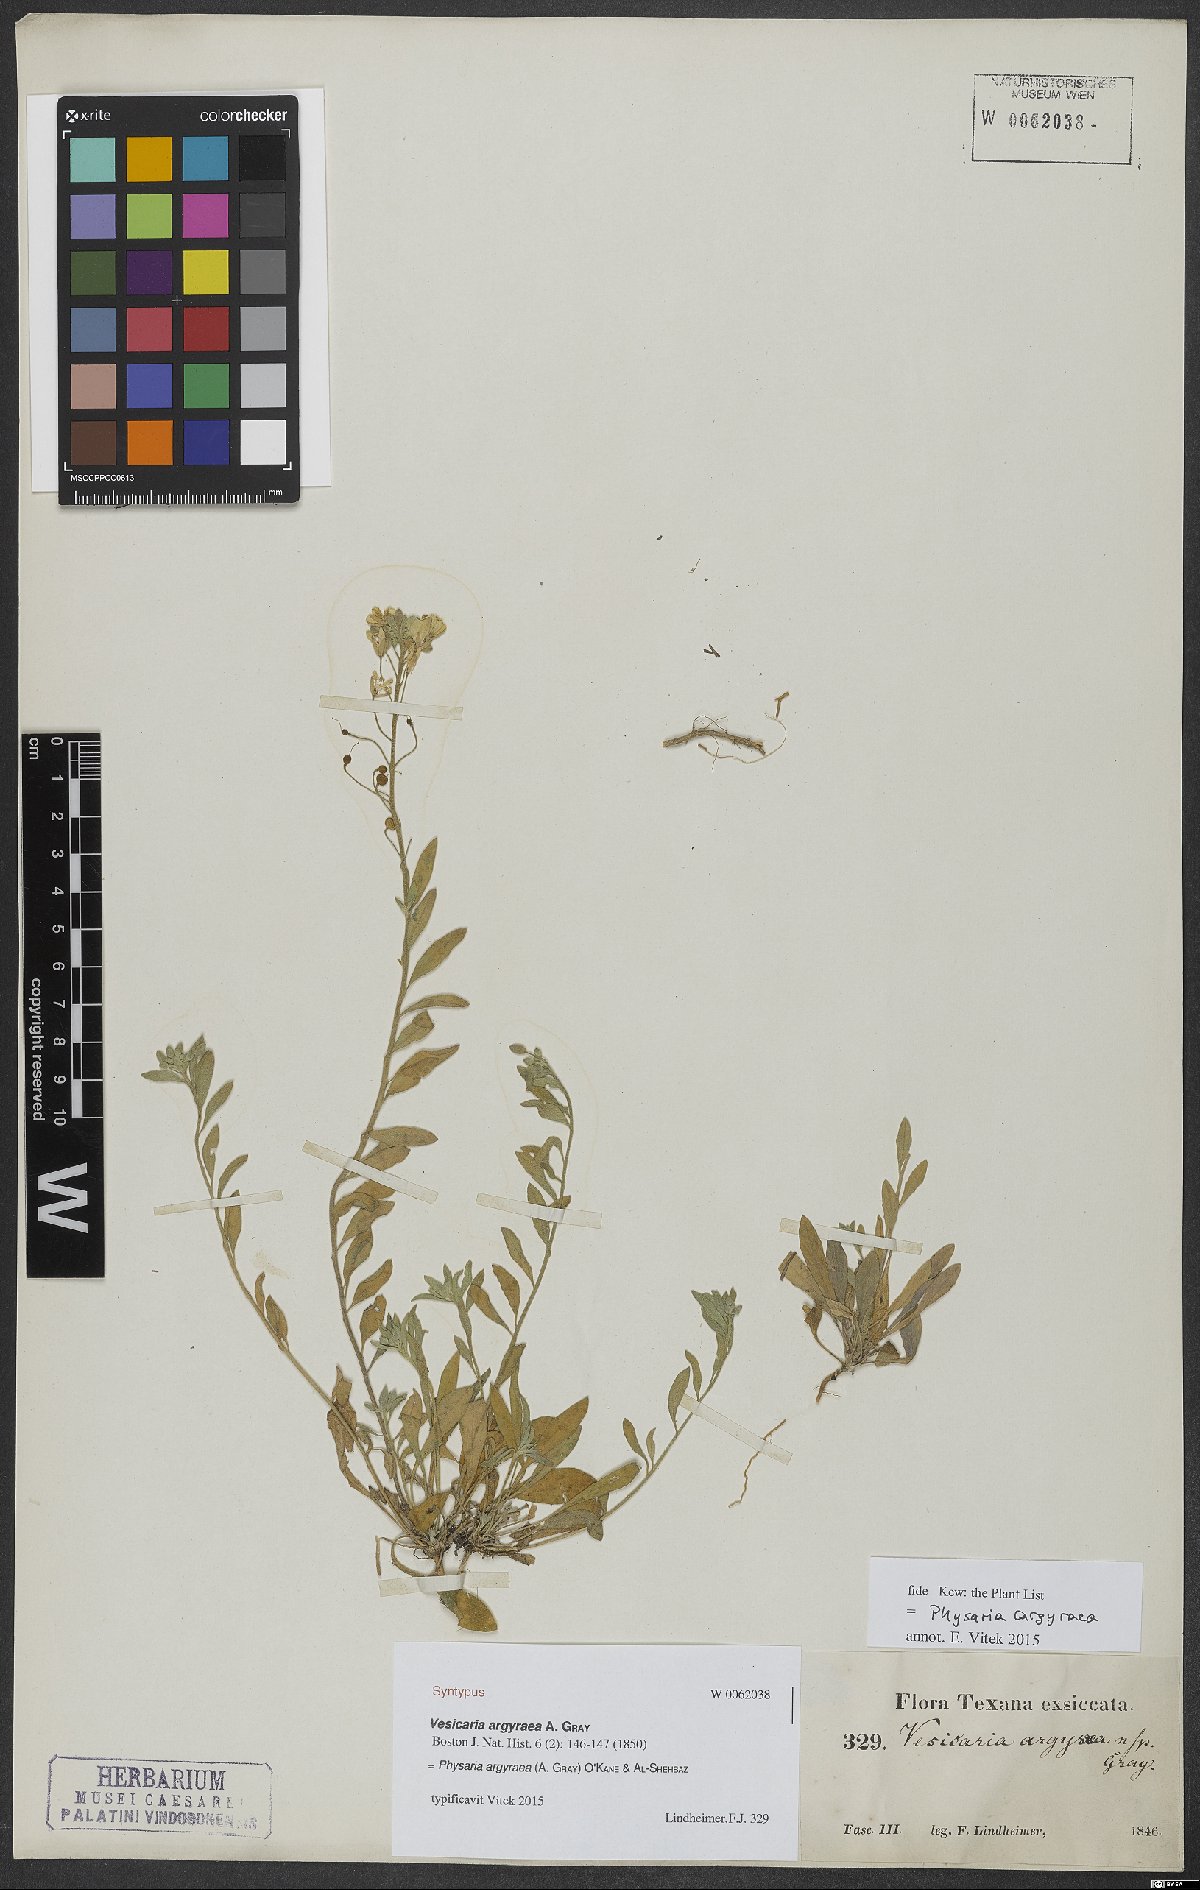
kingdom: Plantae
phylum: Tracheophyta
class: Magnoliopsida
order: Brassicales
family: Brassicaceae
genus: Physaria
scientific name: Physaria argyraea
